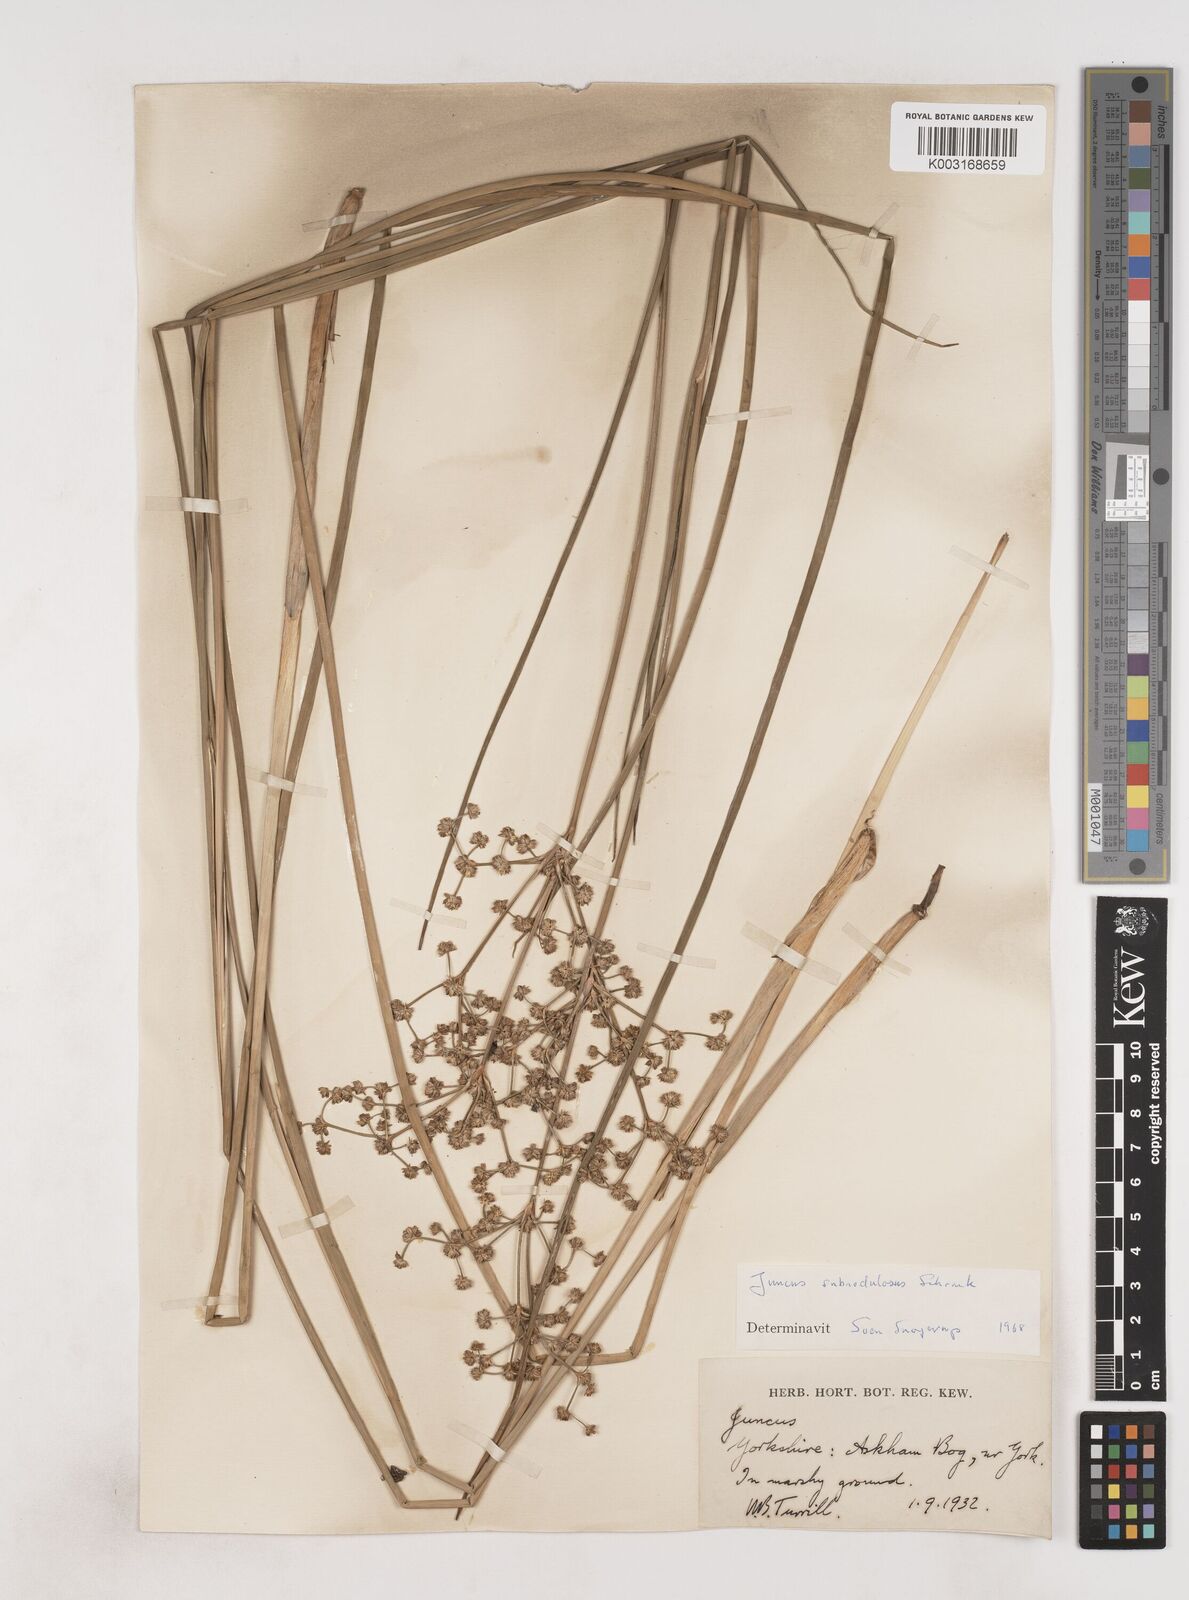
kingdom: Plantae
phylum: Tracheophyta
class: Liliopsida
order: Poales
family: Juncaceae
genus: Juncus
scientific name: Juncus subnodulosus
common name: Blunt-flowered rush
